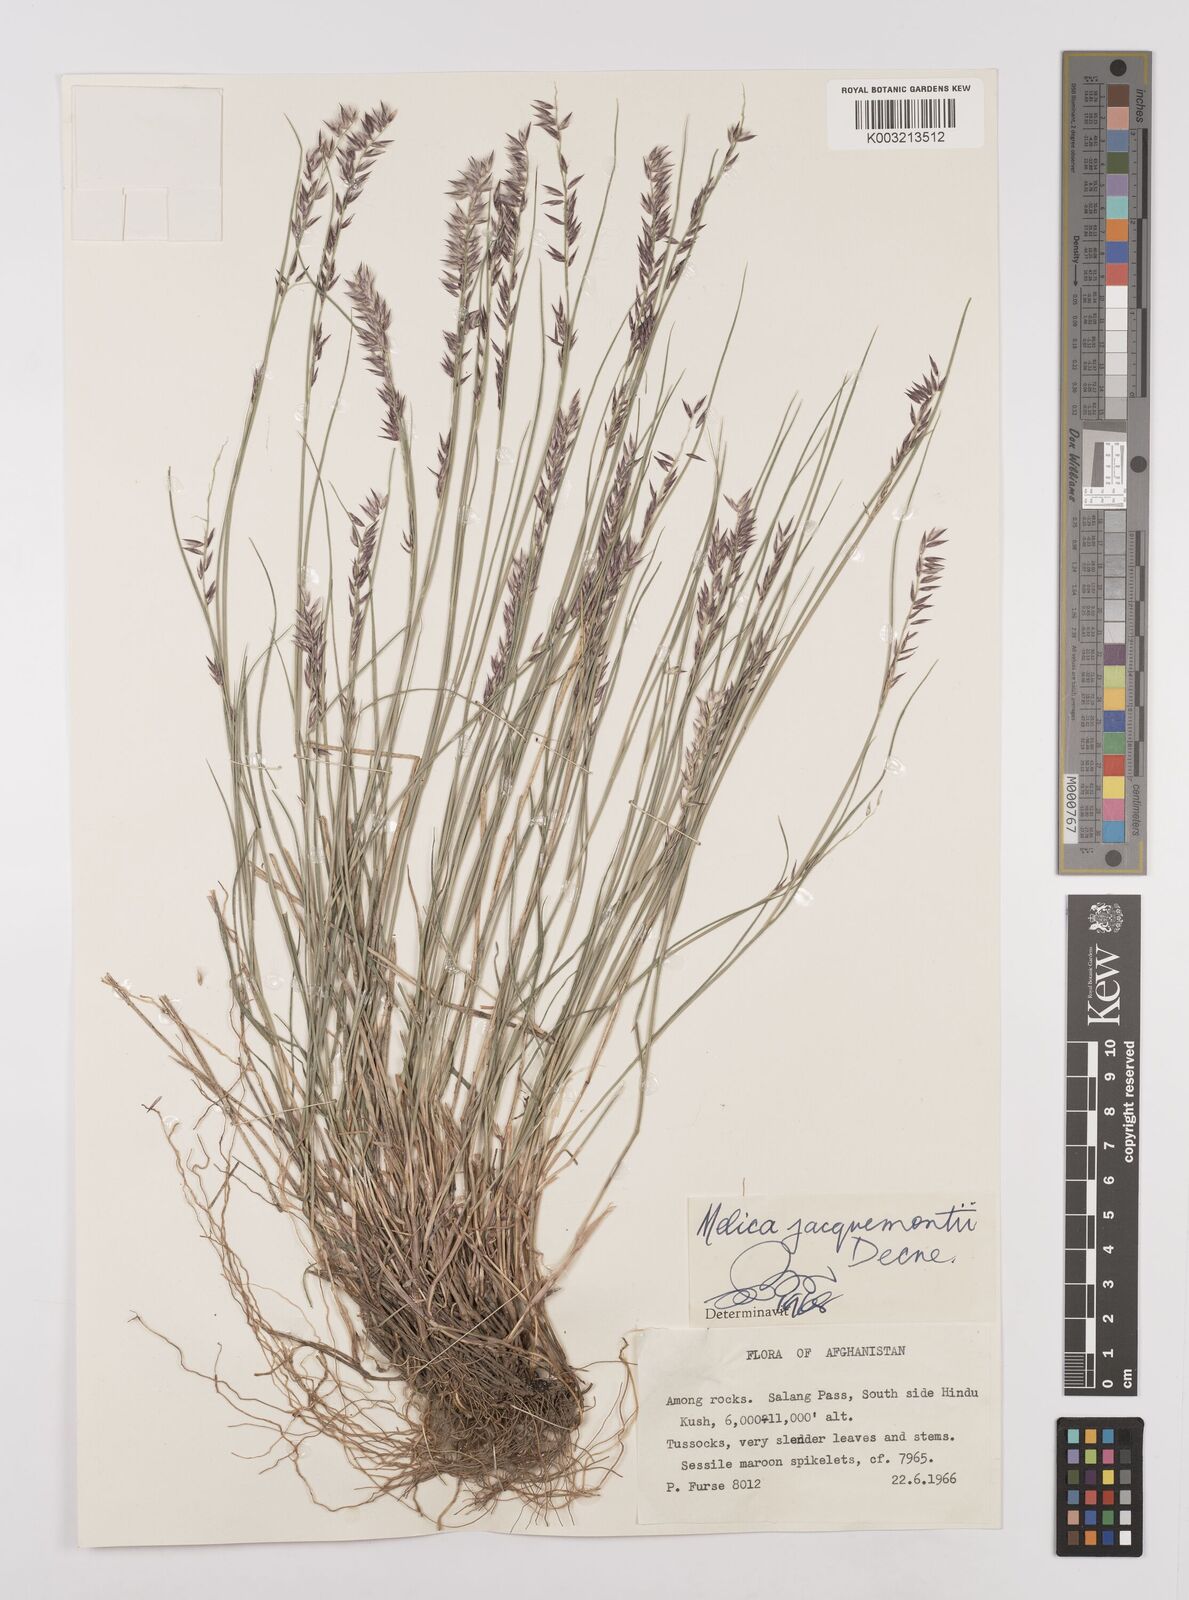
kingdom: Plantae
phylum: Tracheophyta
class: Liliopsida
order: Poales
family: Poaceae
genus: Melica
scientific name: Melica persica
